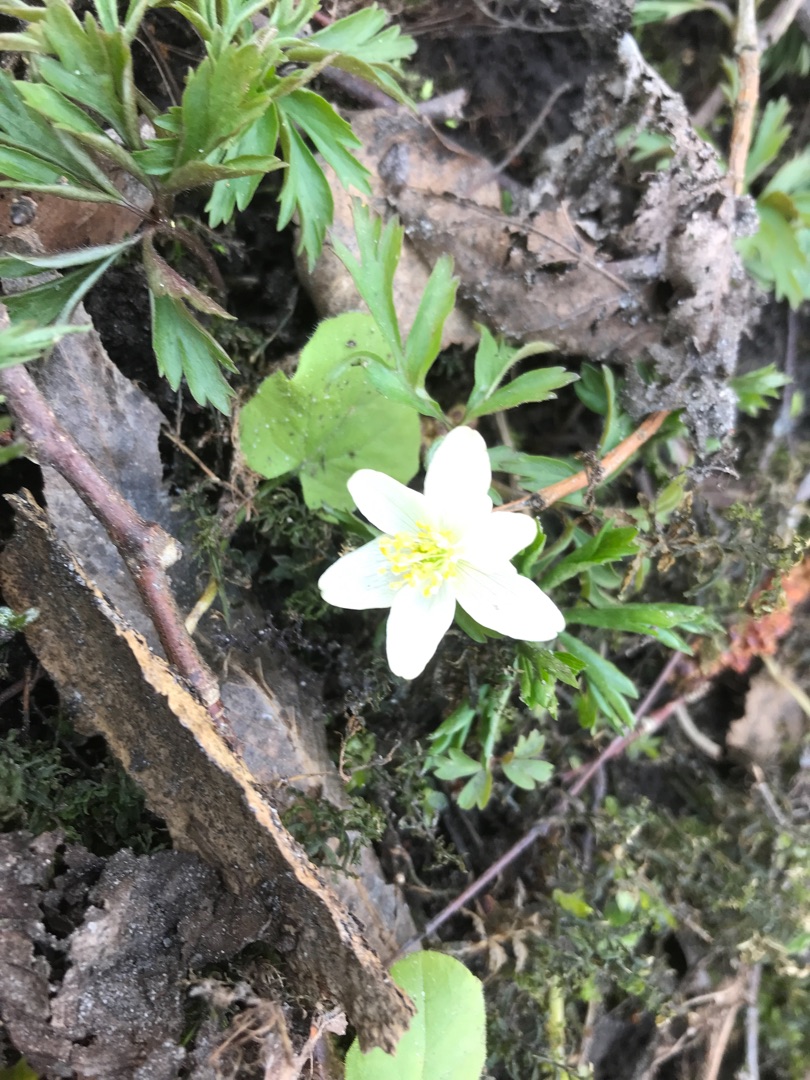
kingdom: Plantae
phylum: Tracheophyta
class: Magnoliopsida
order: Ranunculales
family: Ranunculaceae
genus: Anemone
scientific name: Anemone nemorosa
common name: Hvid anemone
